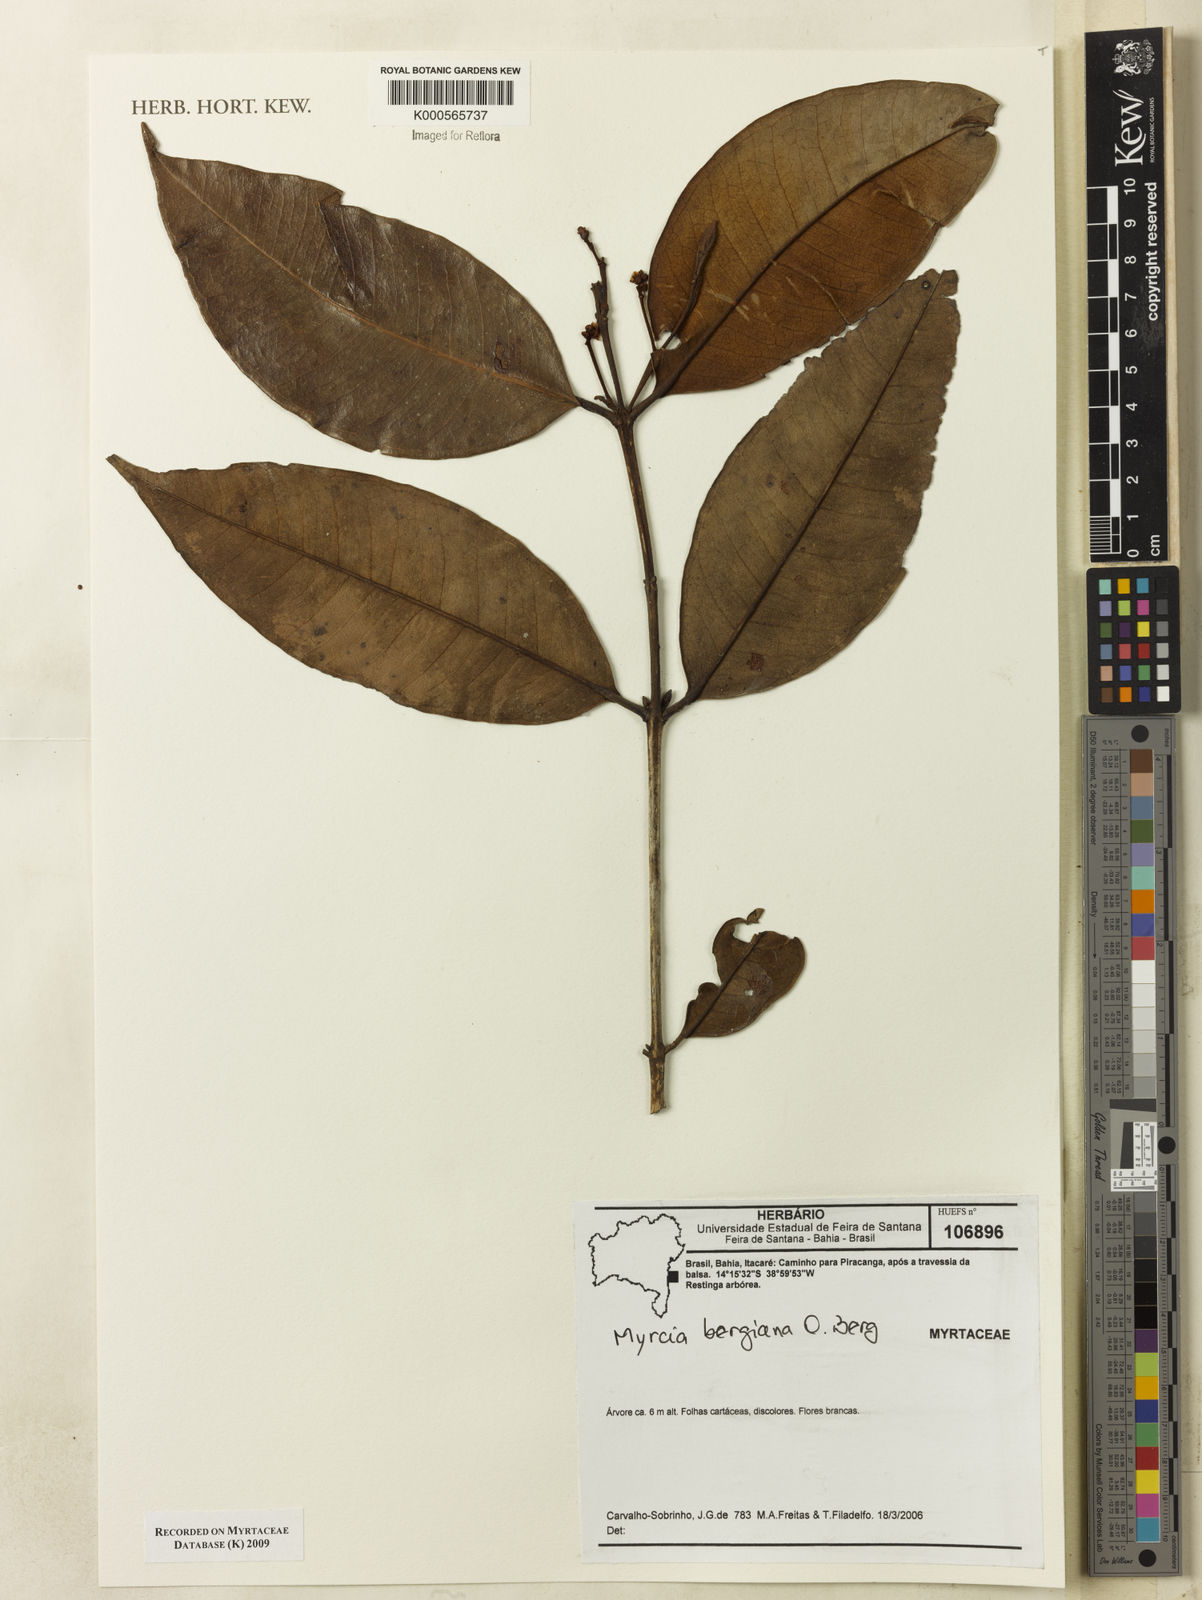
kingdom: Plantae
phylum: Tracheophyta
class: Magnoliopsida
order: Myrtales
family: Myrtaceae
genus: Myrcia
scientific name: Myrcia bergiana
